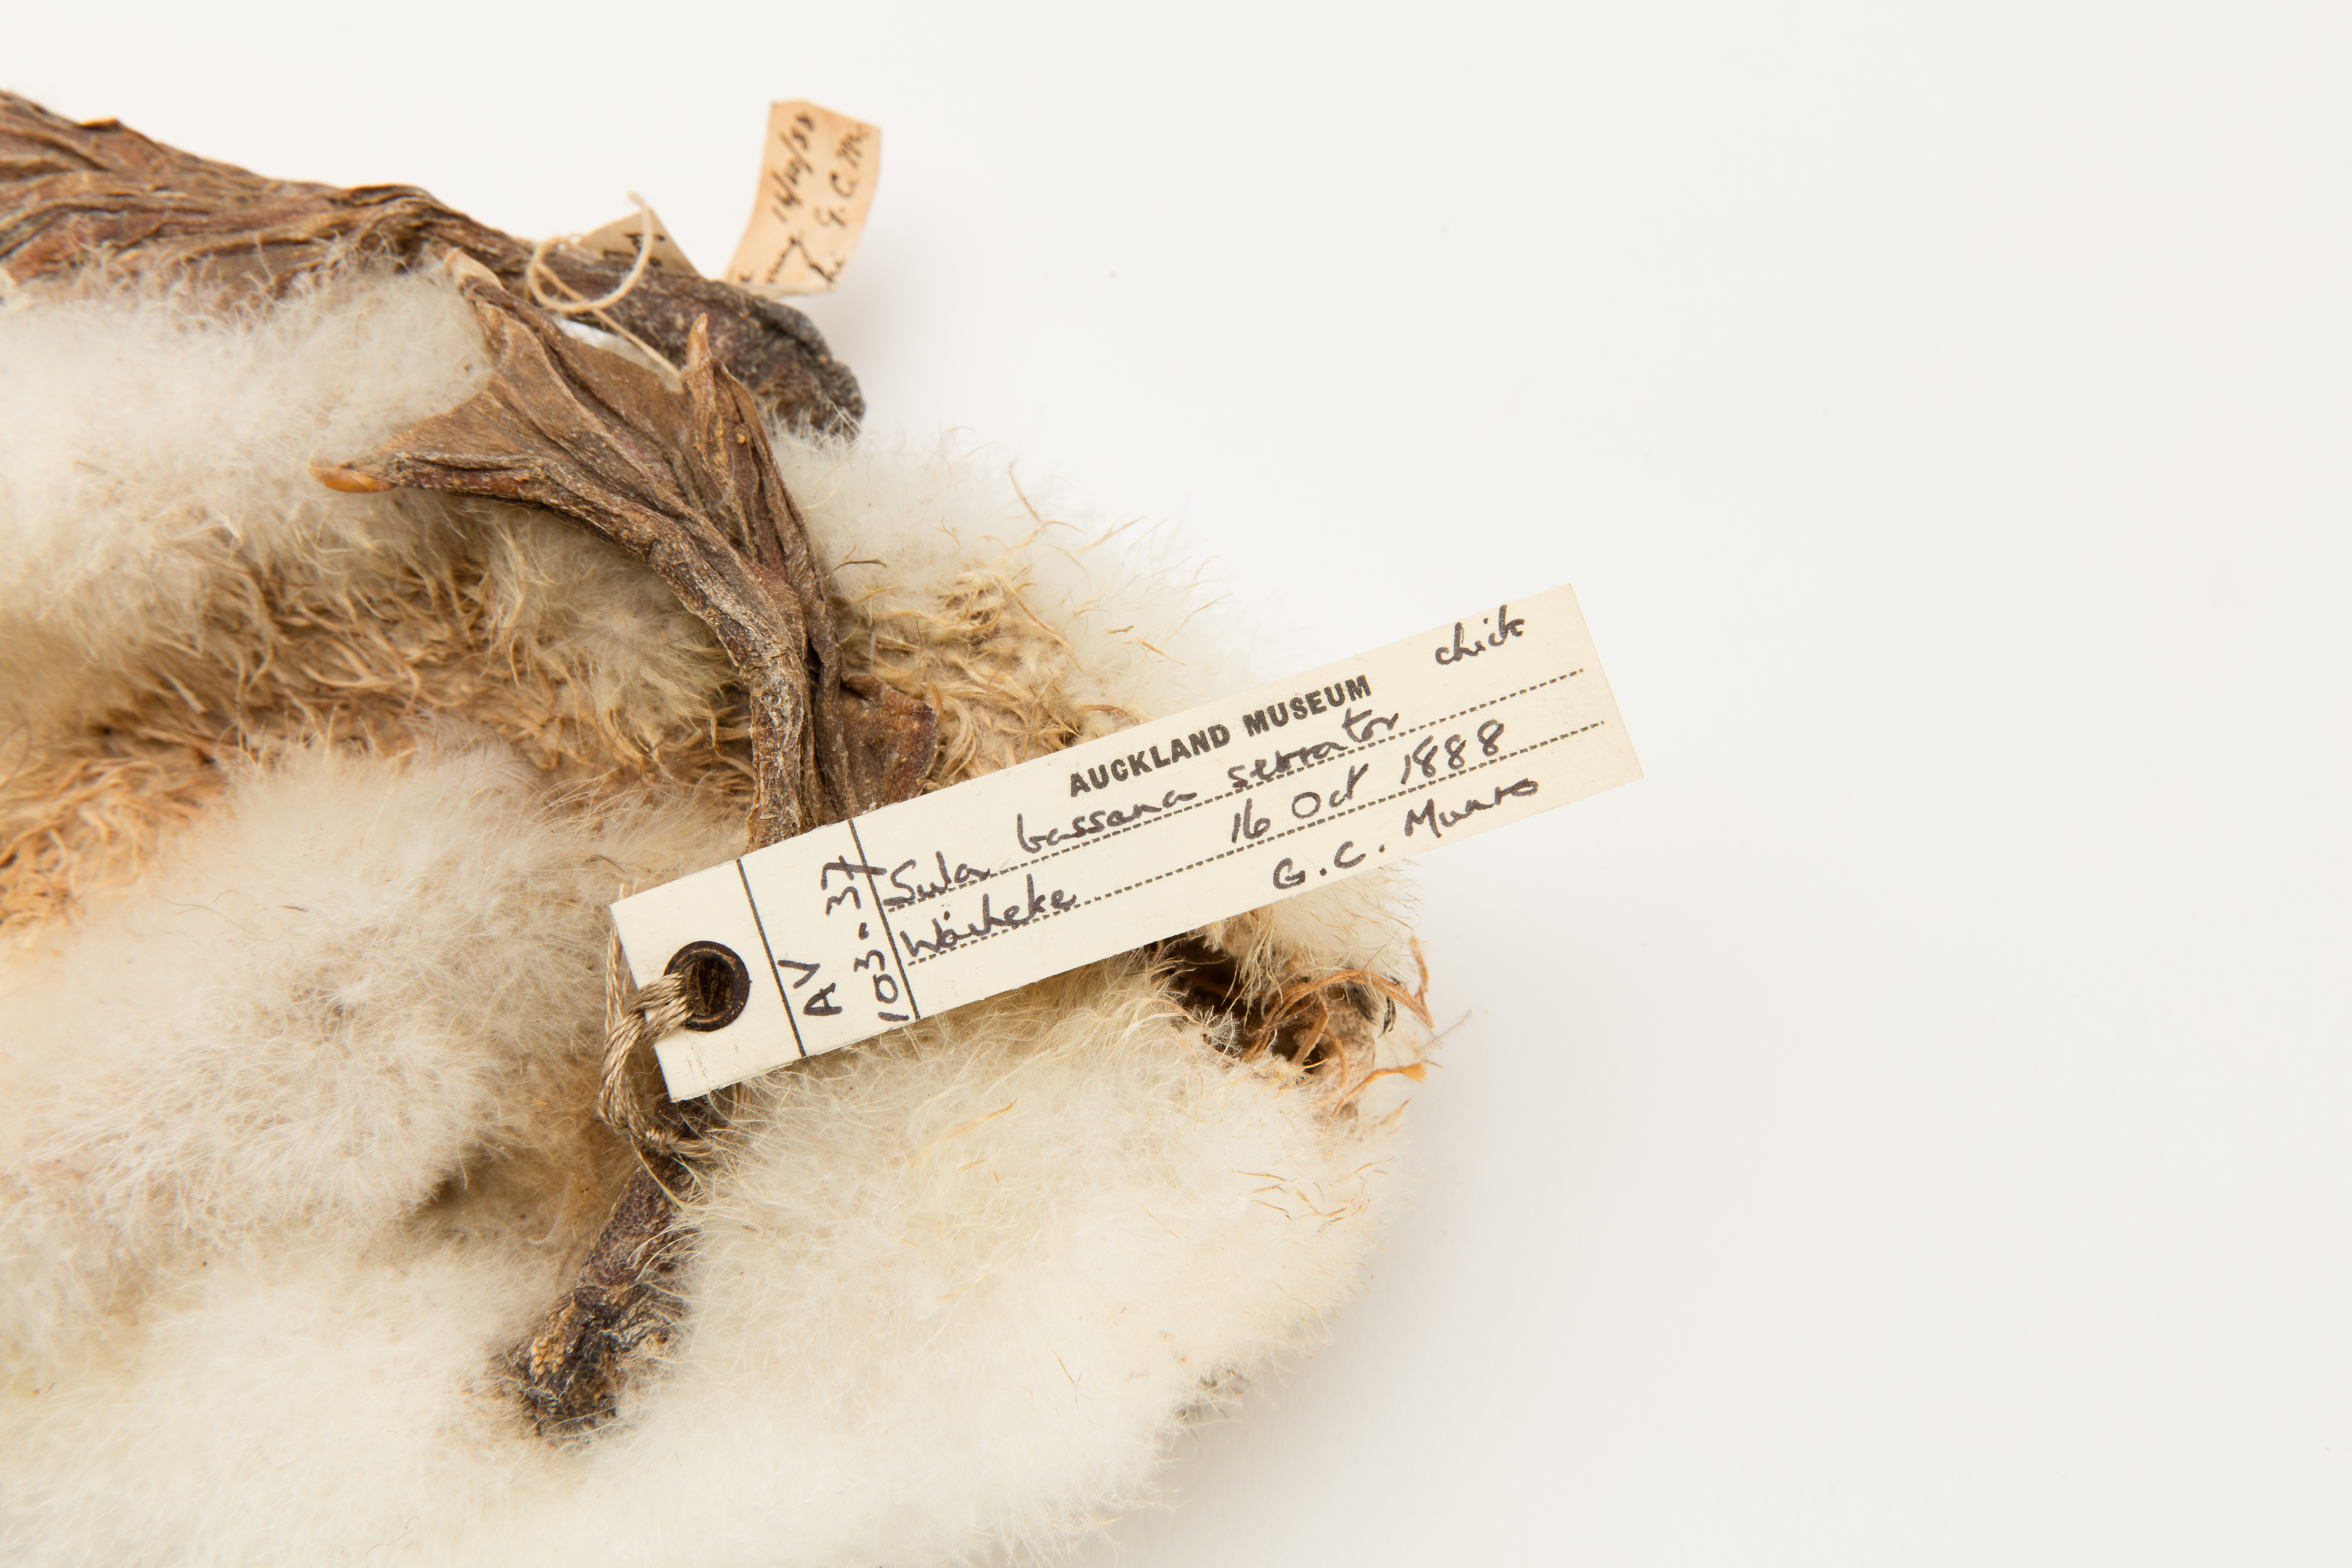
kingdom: Animalia
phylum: Chordata
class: Aves
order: Suliformes
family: Sulidae
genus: Morus
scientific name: Morus serrator
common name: Australasian gannet
